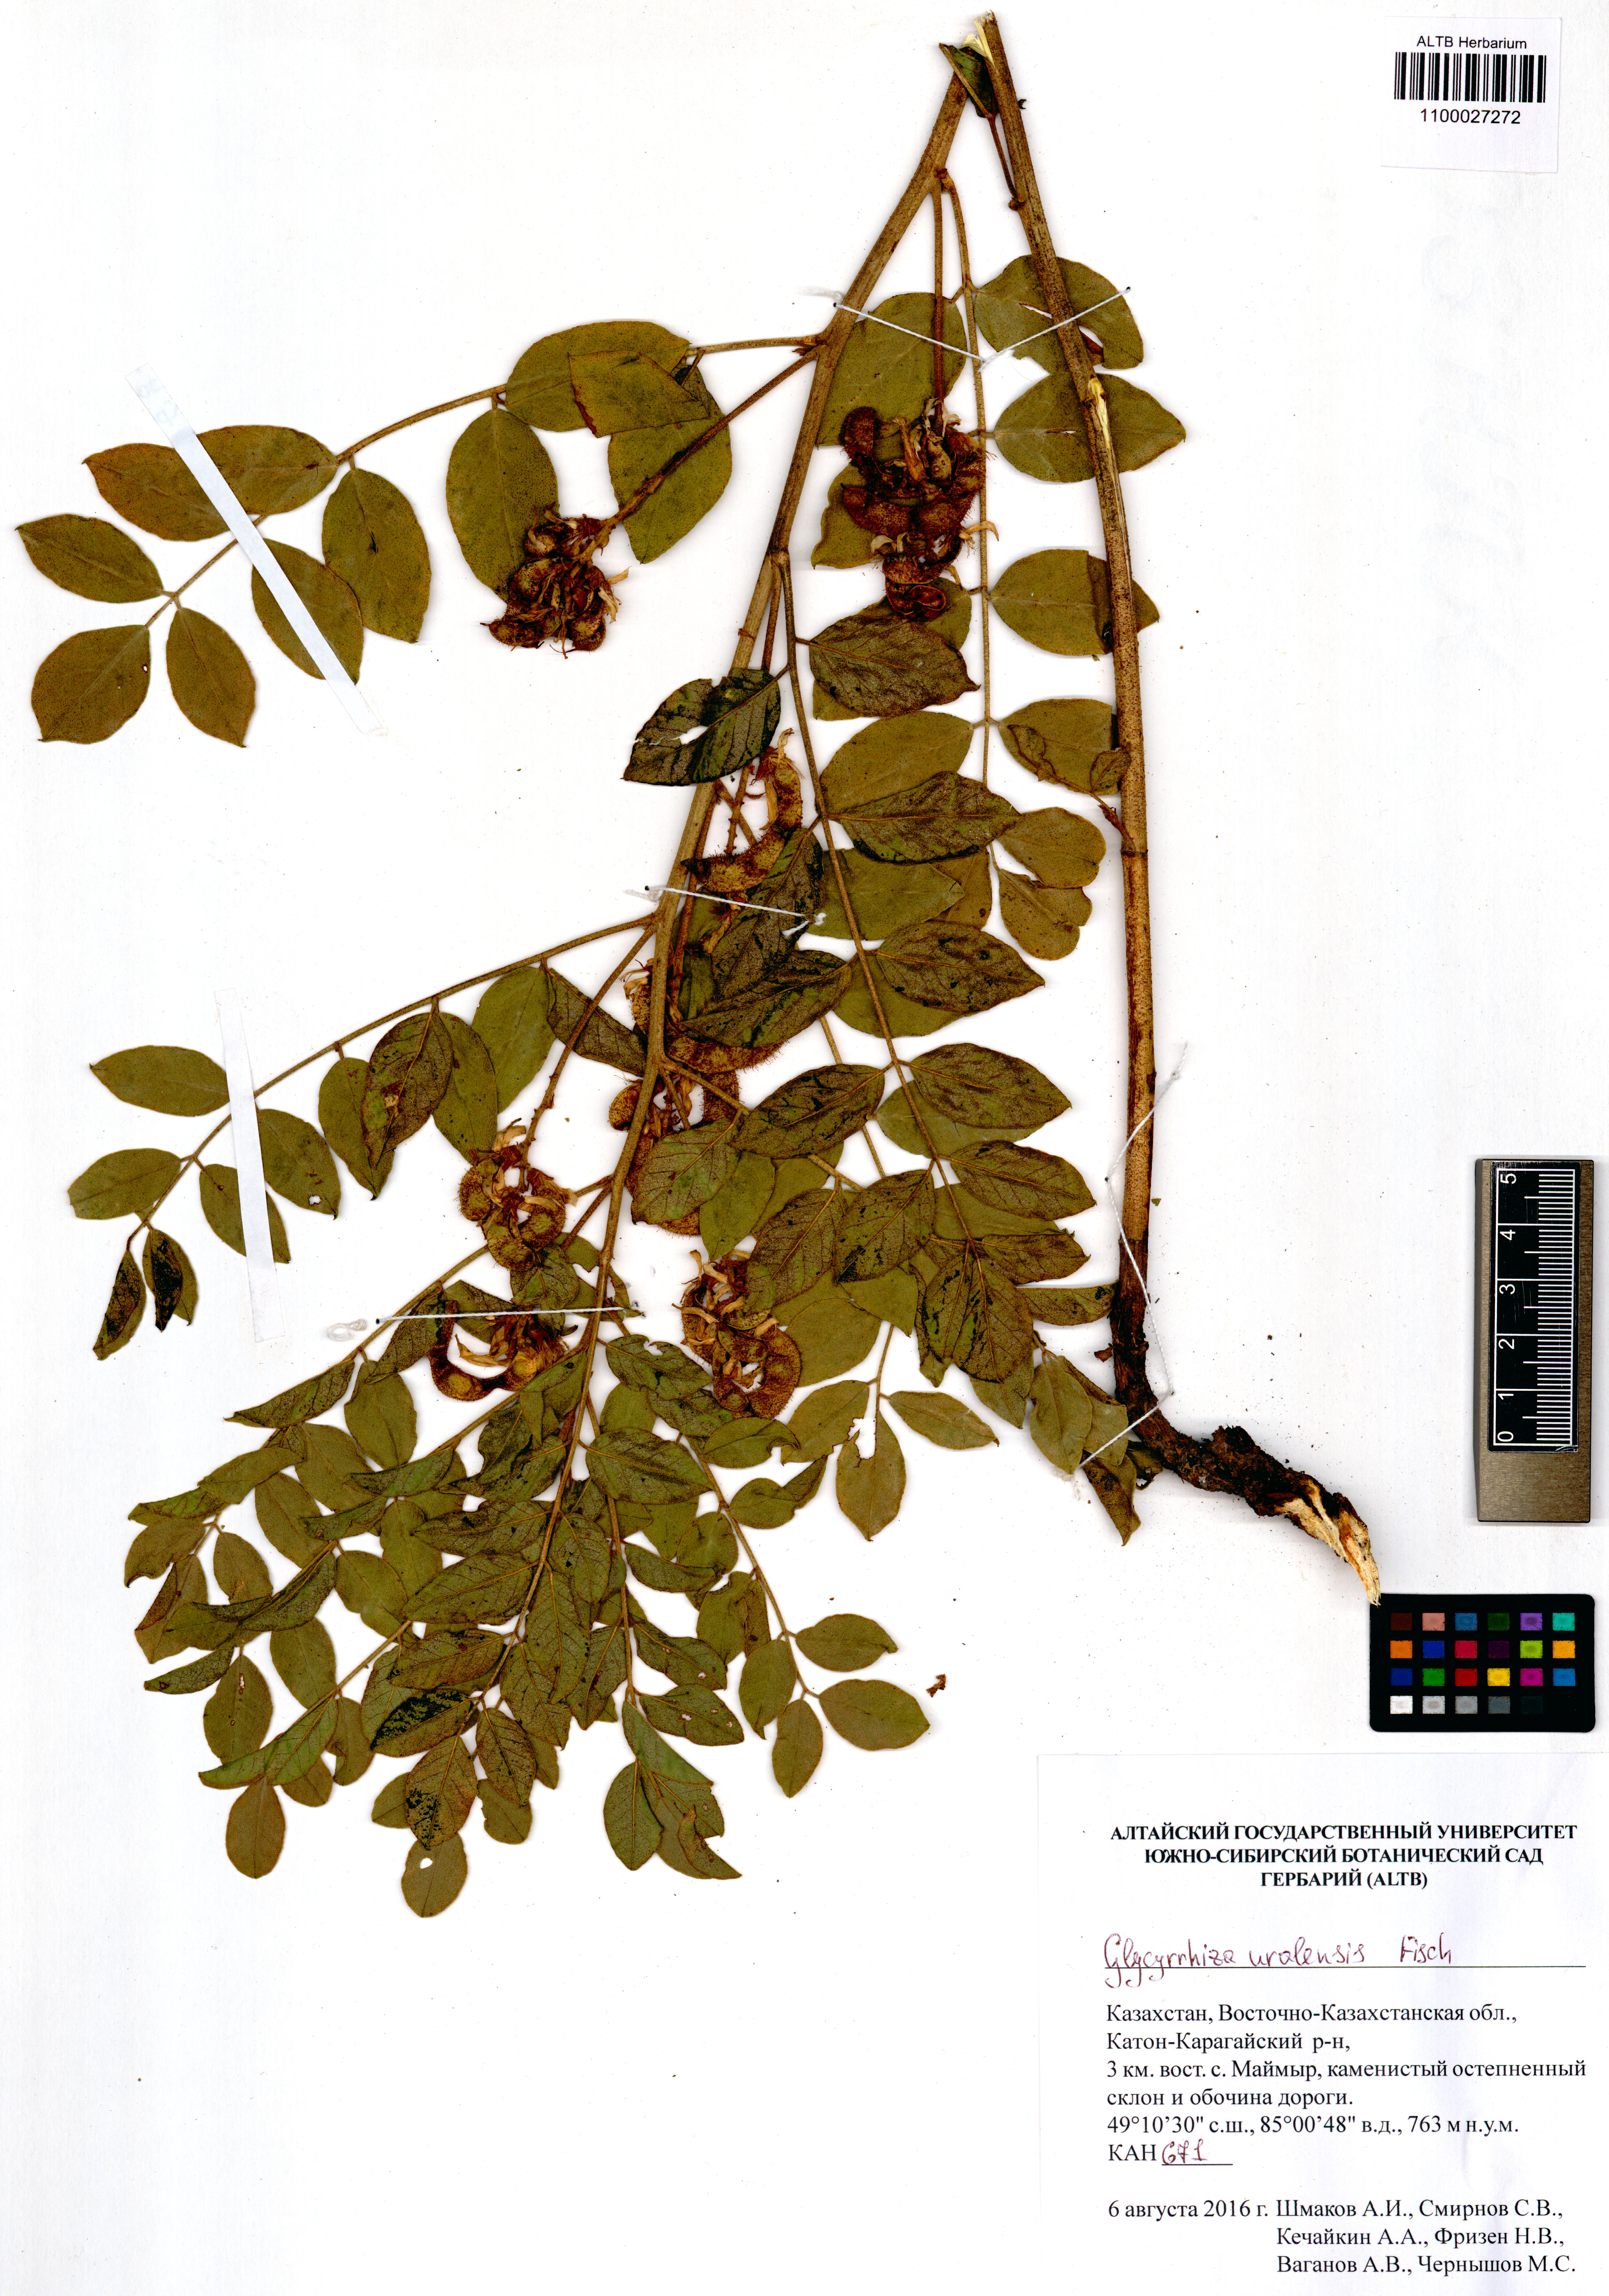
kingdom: Plantae
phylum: Tracheophyta
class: Magnoliopsida
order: Fabales
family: Fabaceae
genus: Glycyrrhiza
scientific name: Glycyrrhiza uralensis
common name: Chinese licorice
